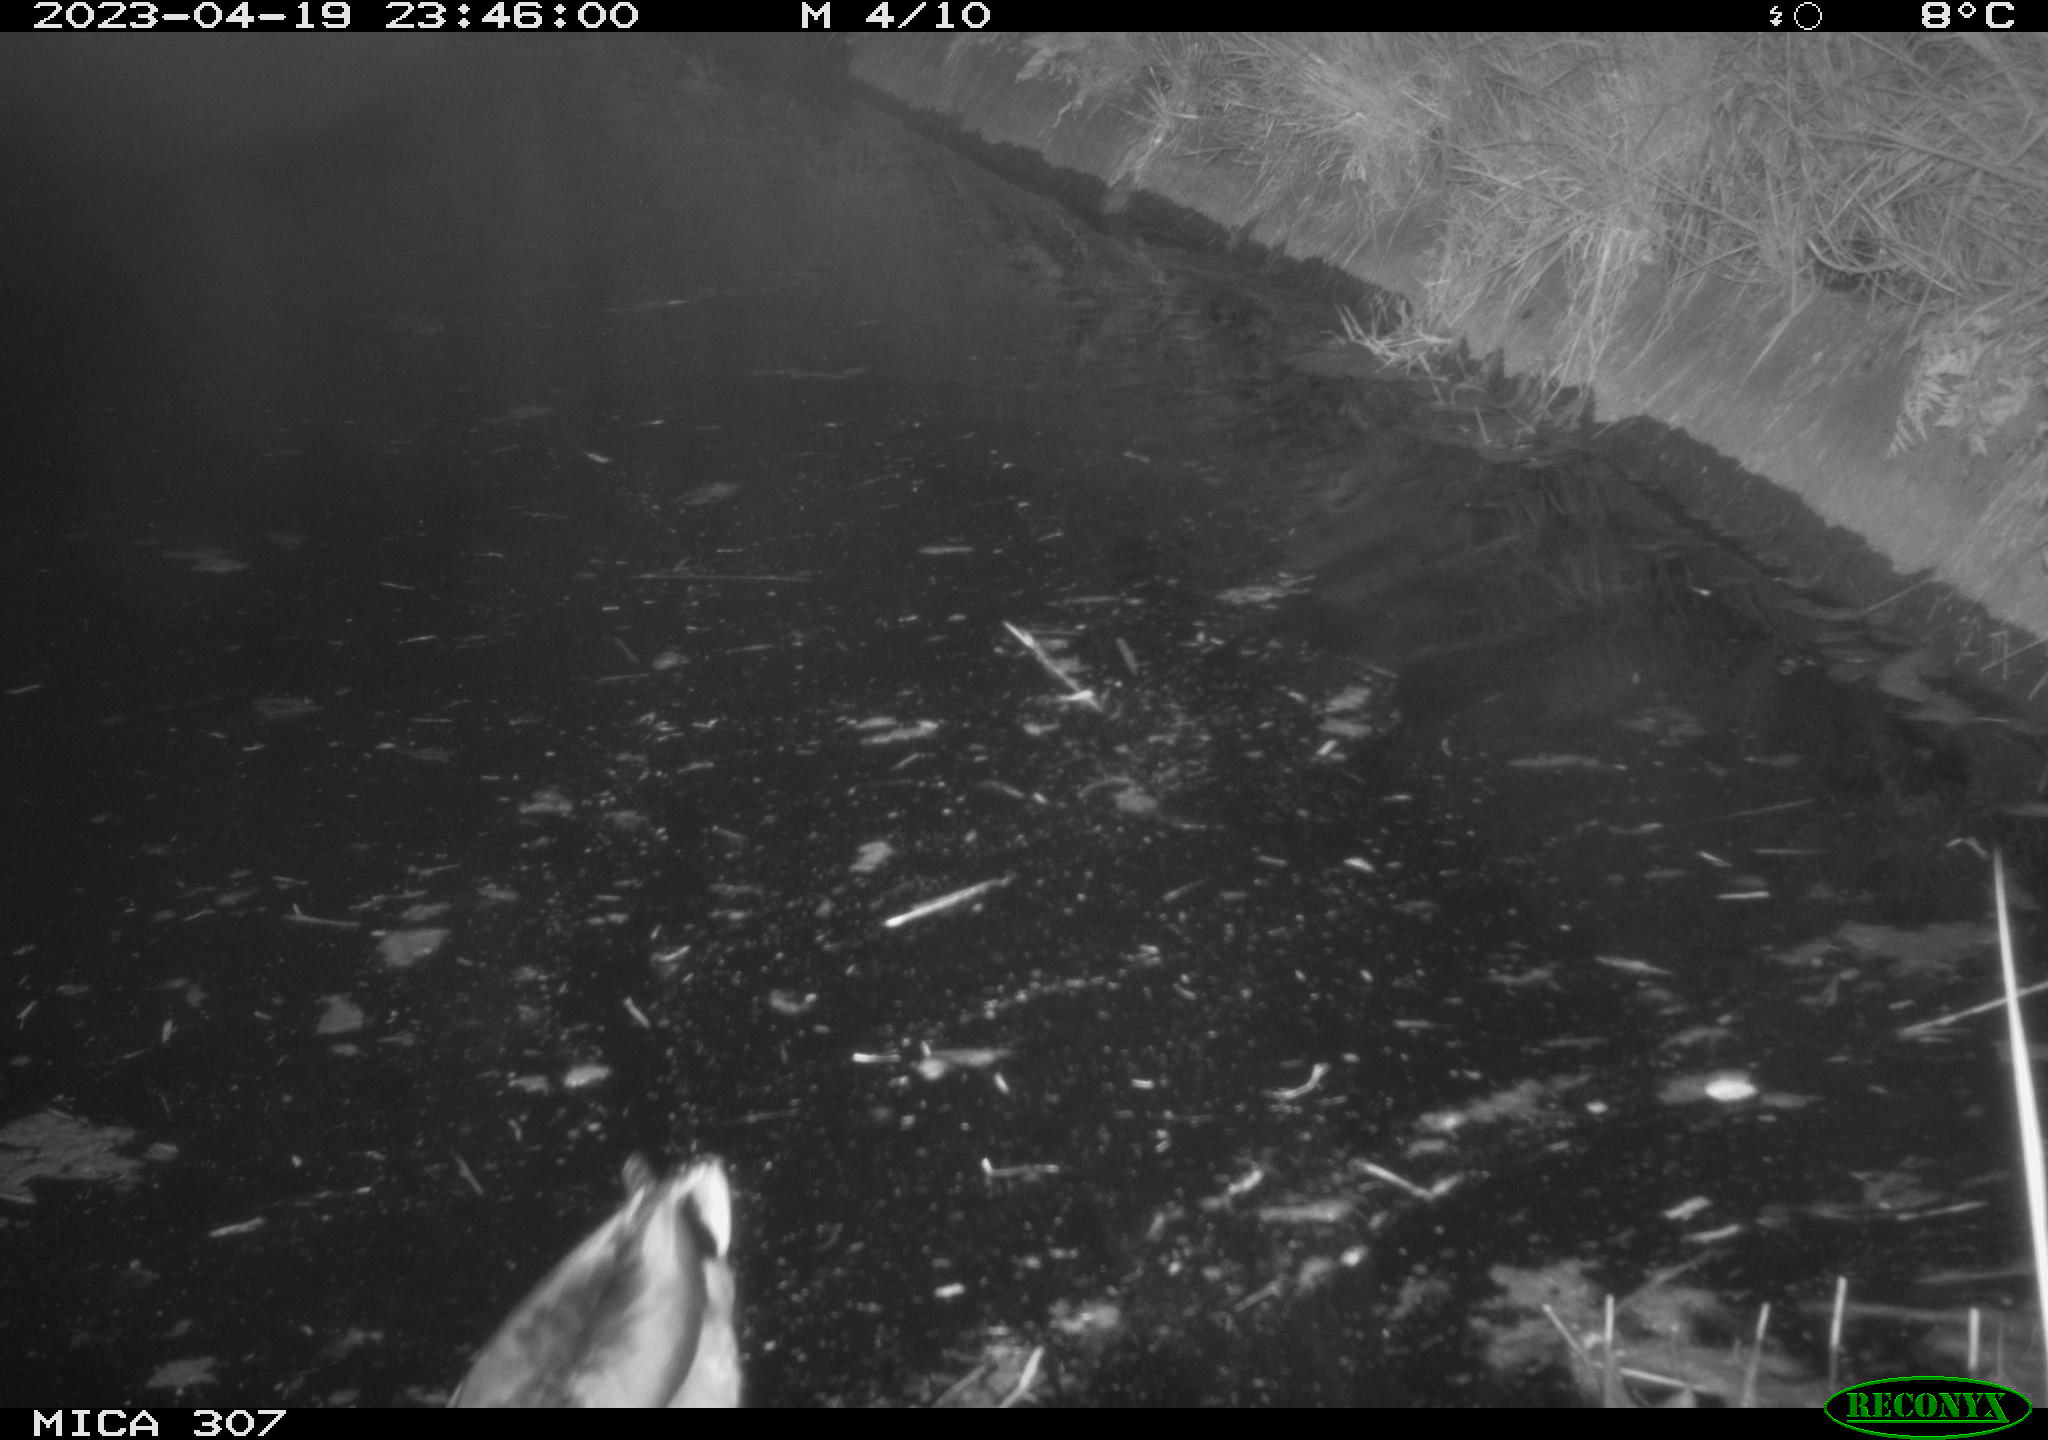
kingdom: Animalia
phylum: Chordata
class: Aves
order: Anseriformes
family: Anatidae
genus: Anas
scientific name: Anas
